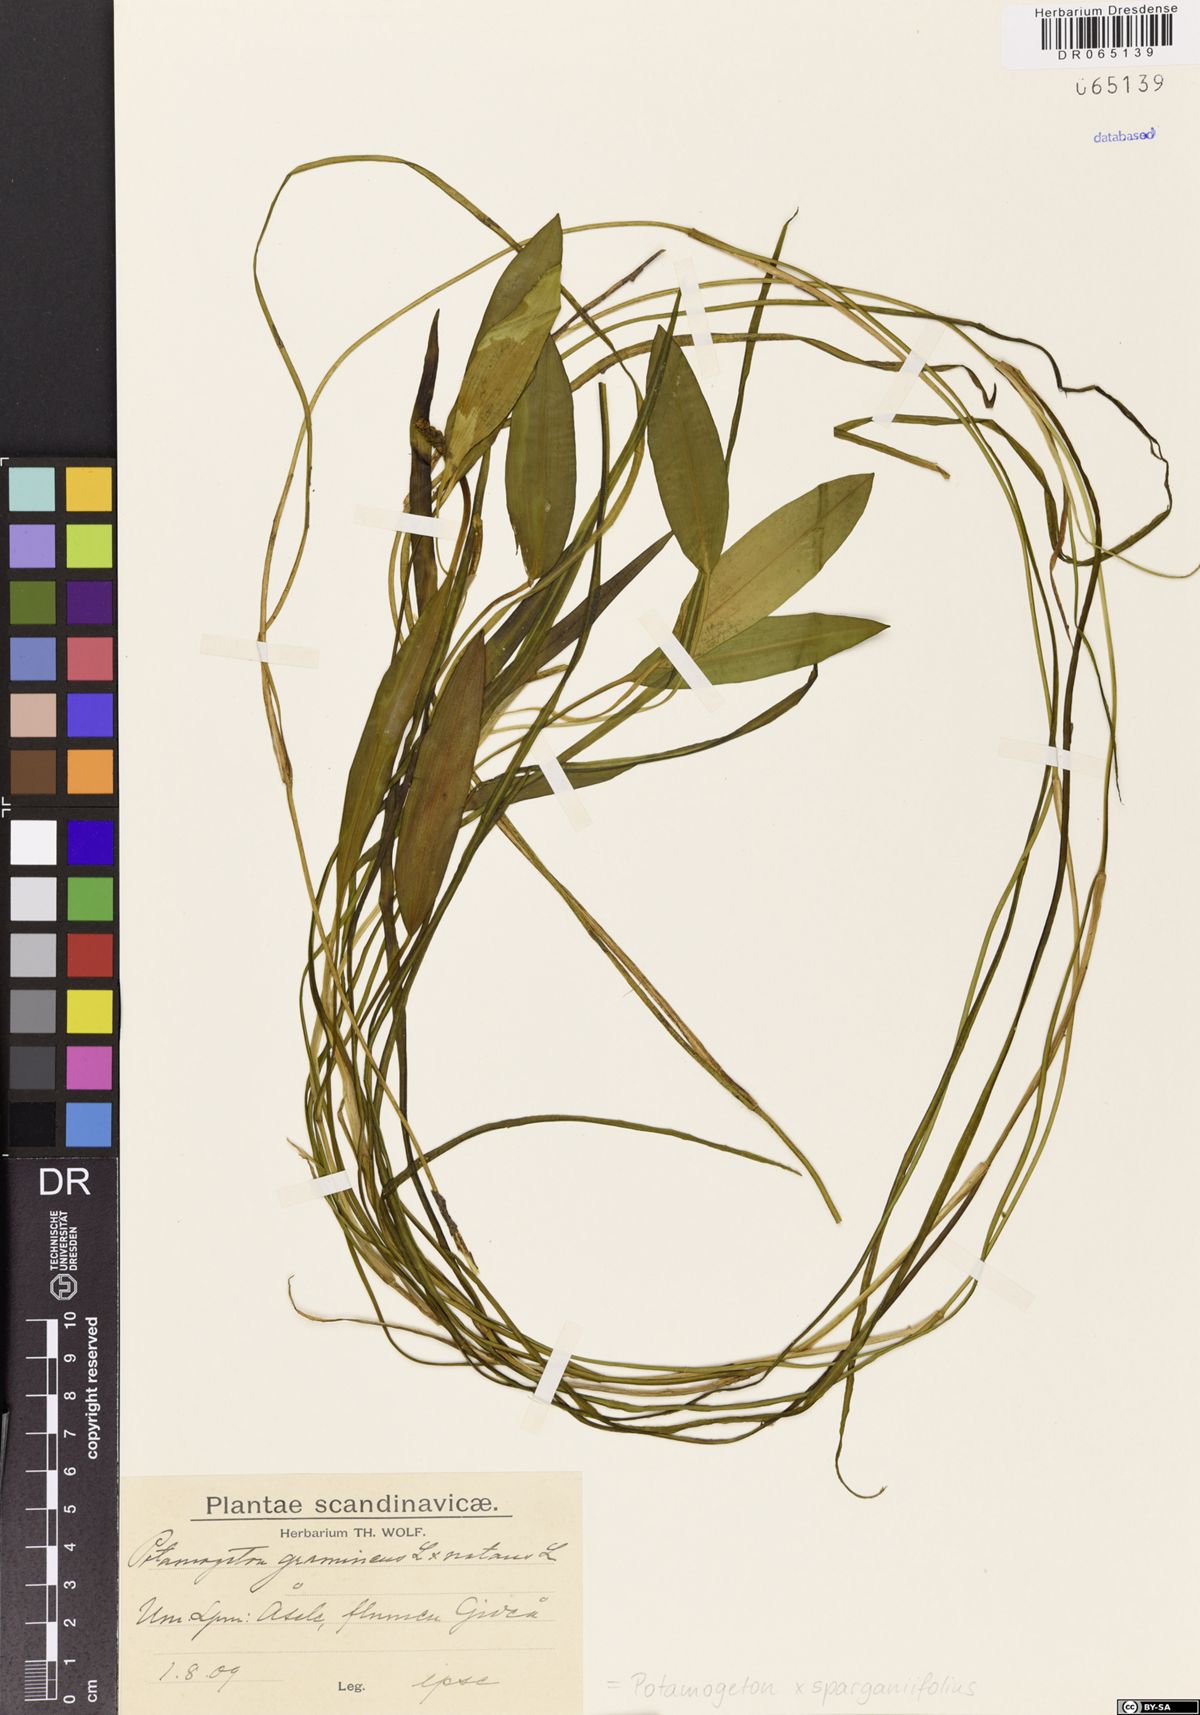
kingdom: Plantae
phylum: Tracheophyta
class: Liliopsida
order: Alismatales
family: Potamogetonaceae
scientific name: Potamogetonaceae
